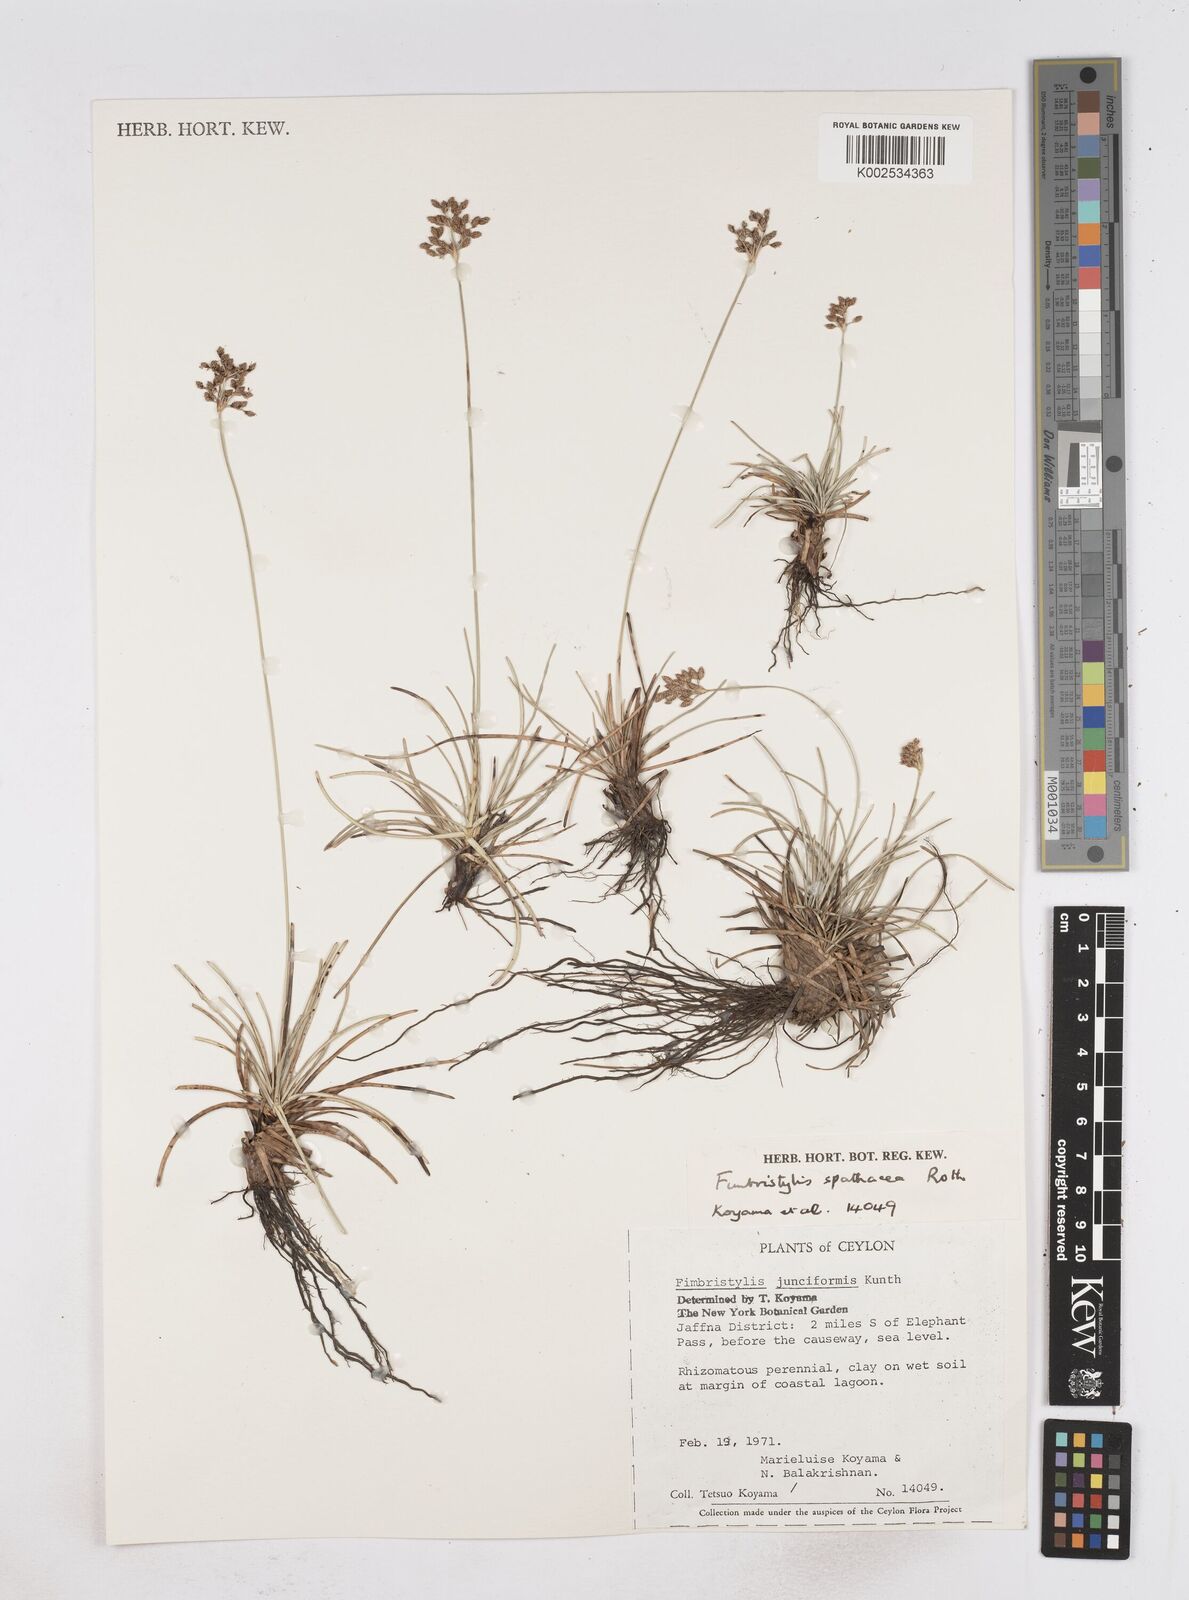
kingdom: Plantae
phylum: Tracheophyta
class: Liliopsida
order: Poales
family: Cyperaceae
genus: Fimbristylis
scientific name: Fimbristylis cymosa
